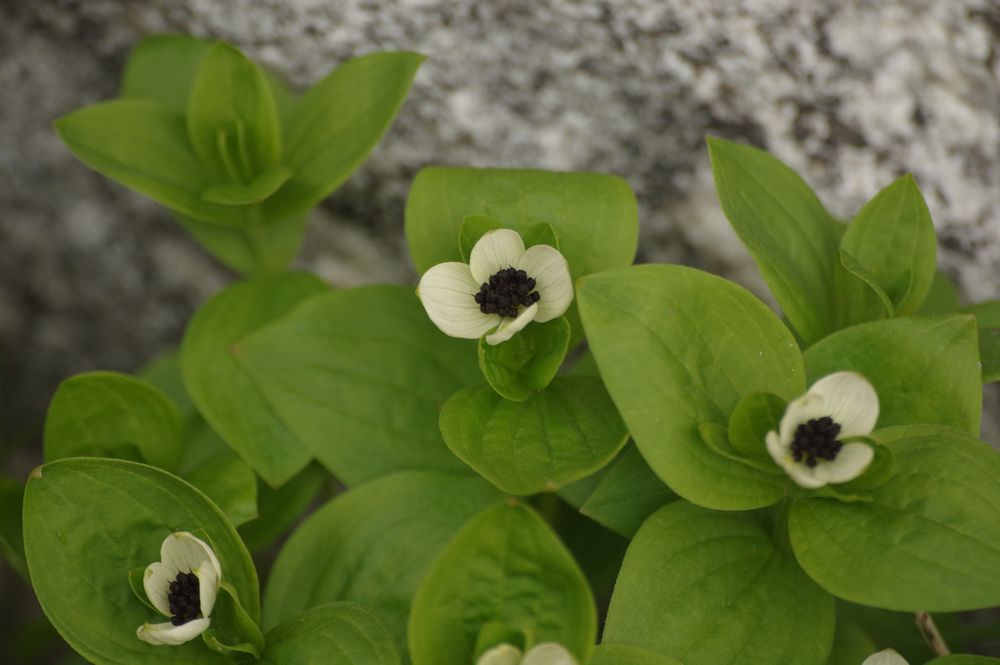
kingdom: Plantae
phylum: Tracheophyta
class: Magnoliopsida
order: Cornales
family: Cornaceae
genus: Cornus
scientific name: Cornus suecica
